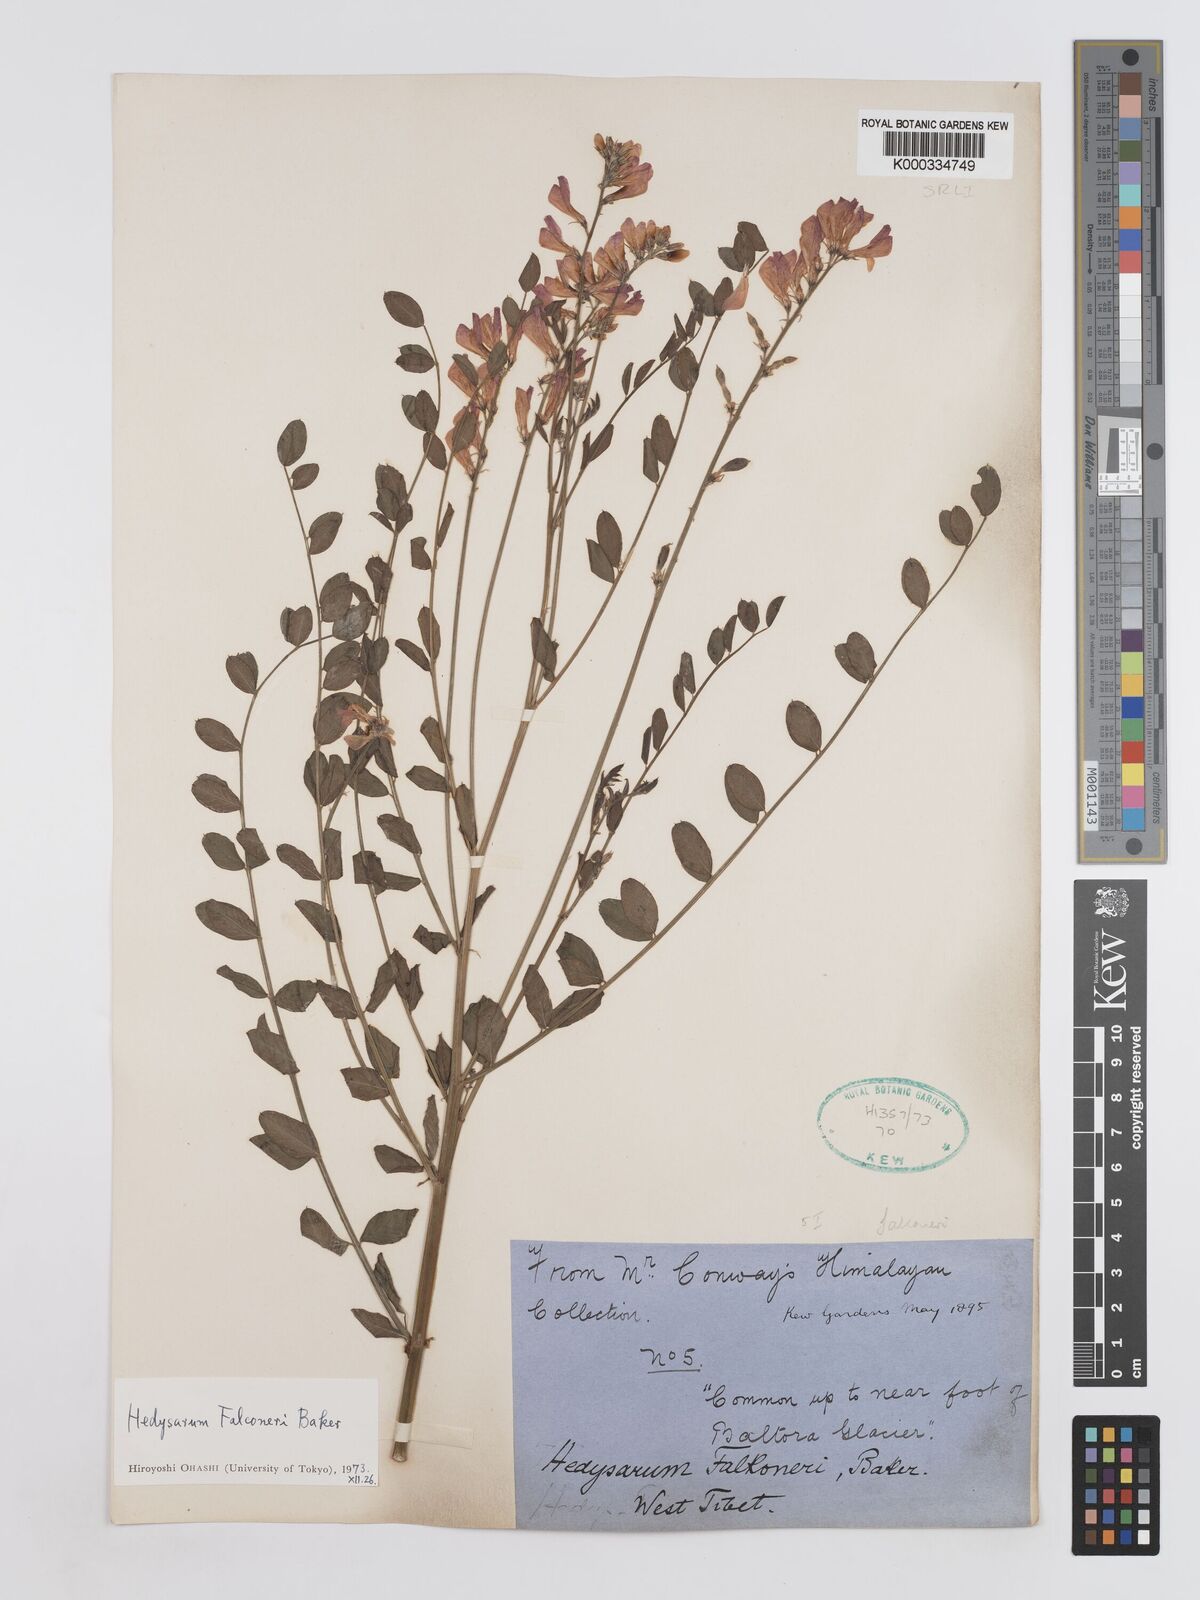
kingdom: Plantae
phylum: Tracheophyta
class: Magnoliopsida
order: Fabales
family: Fabaceae
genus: Hedysarum
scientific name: Hedysarum falconeri
